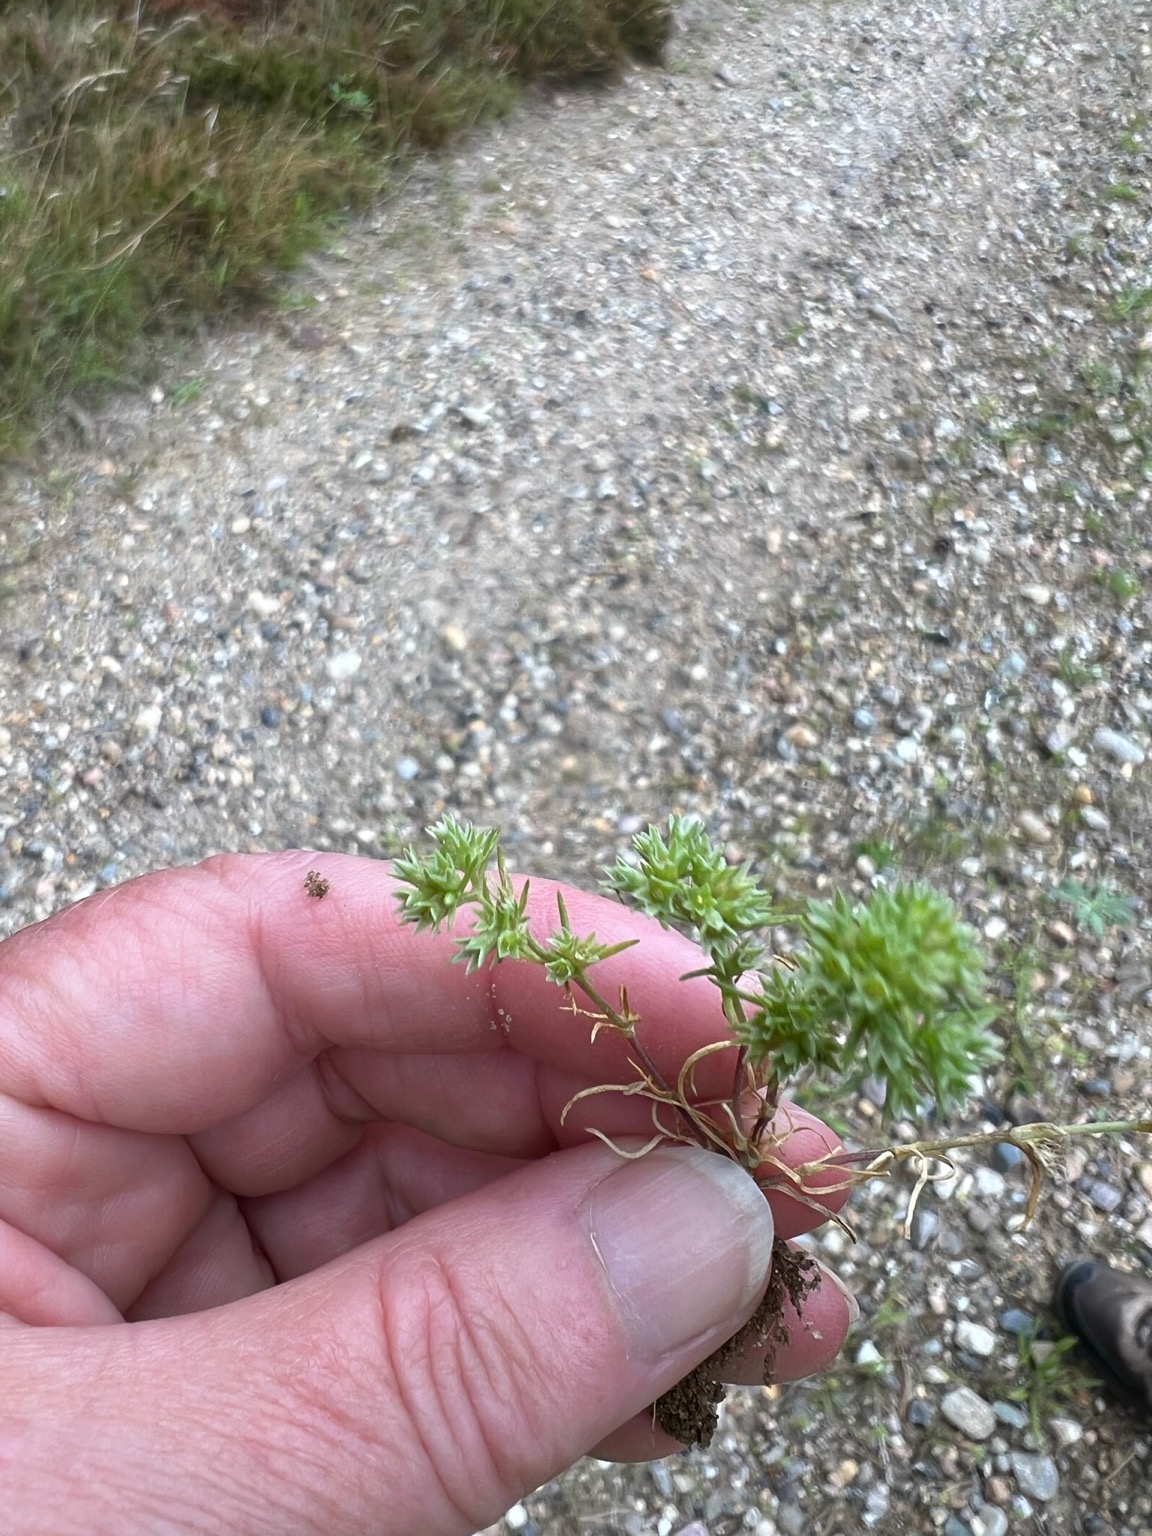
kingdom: Plantae
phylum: Tracheophyta
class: Magnoliopsida
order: Caryophyllales
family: Caryophyllaceae
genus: Scleranthus
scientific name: Scleranthus annuus
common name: Enårig knavel
